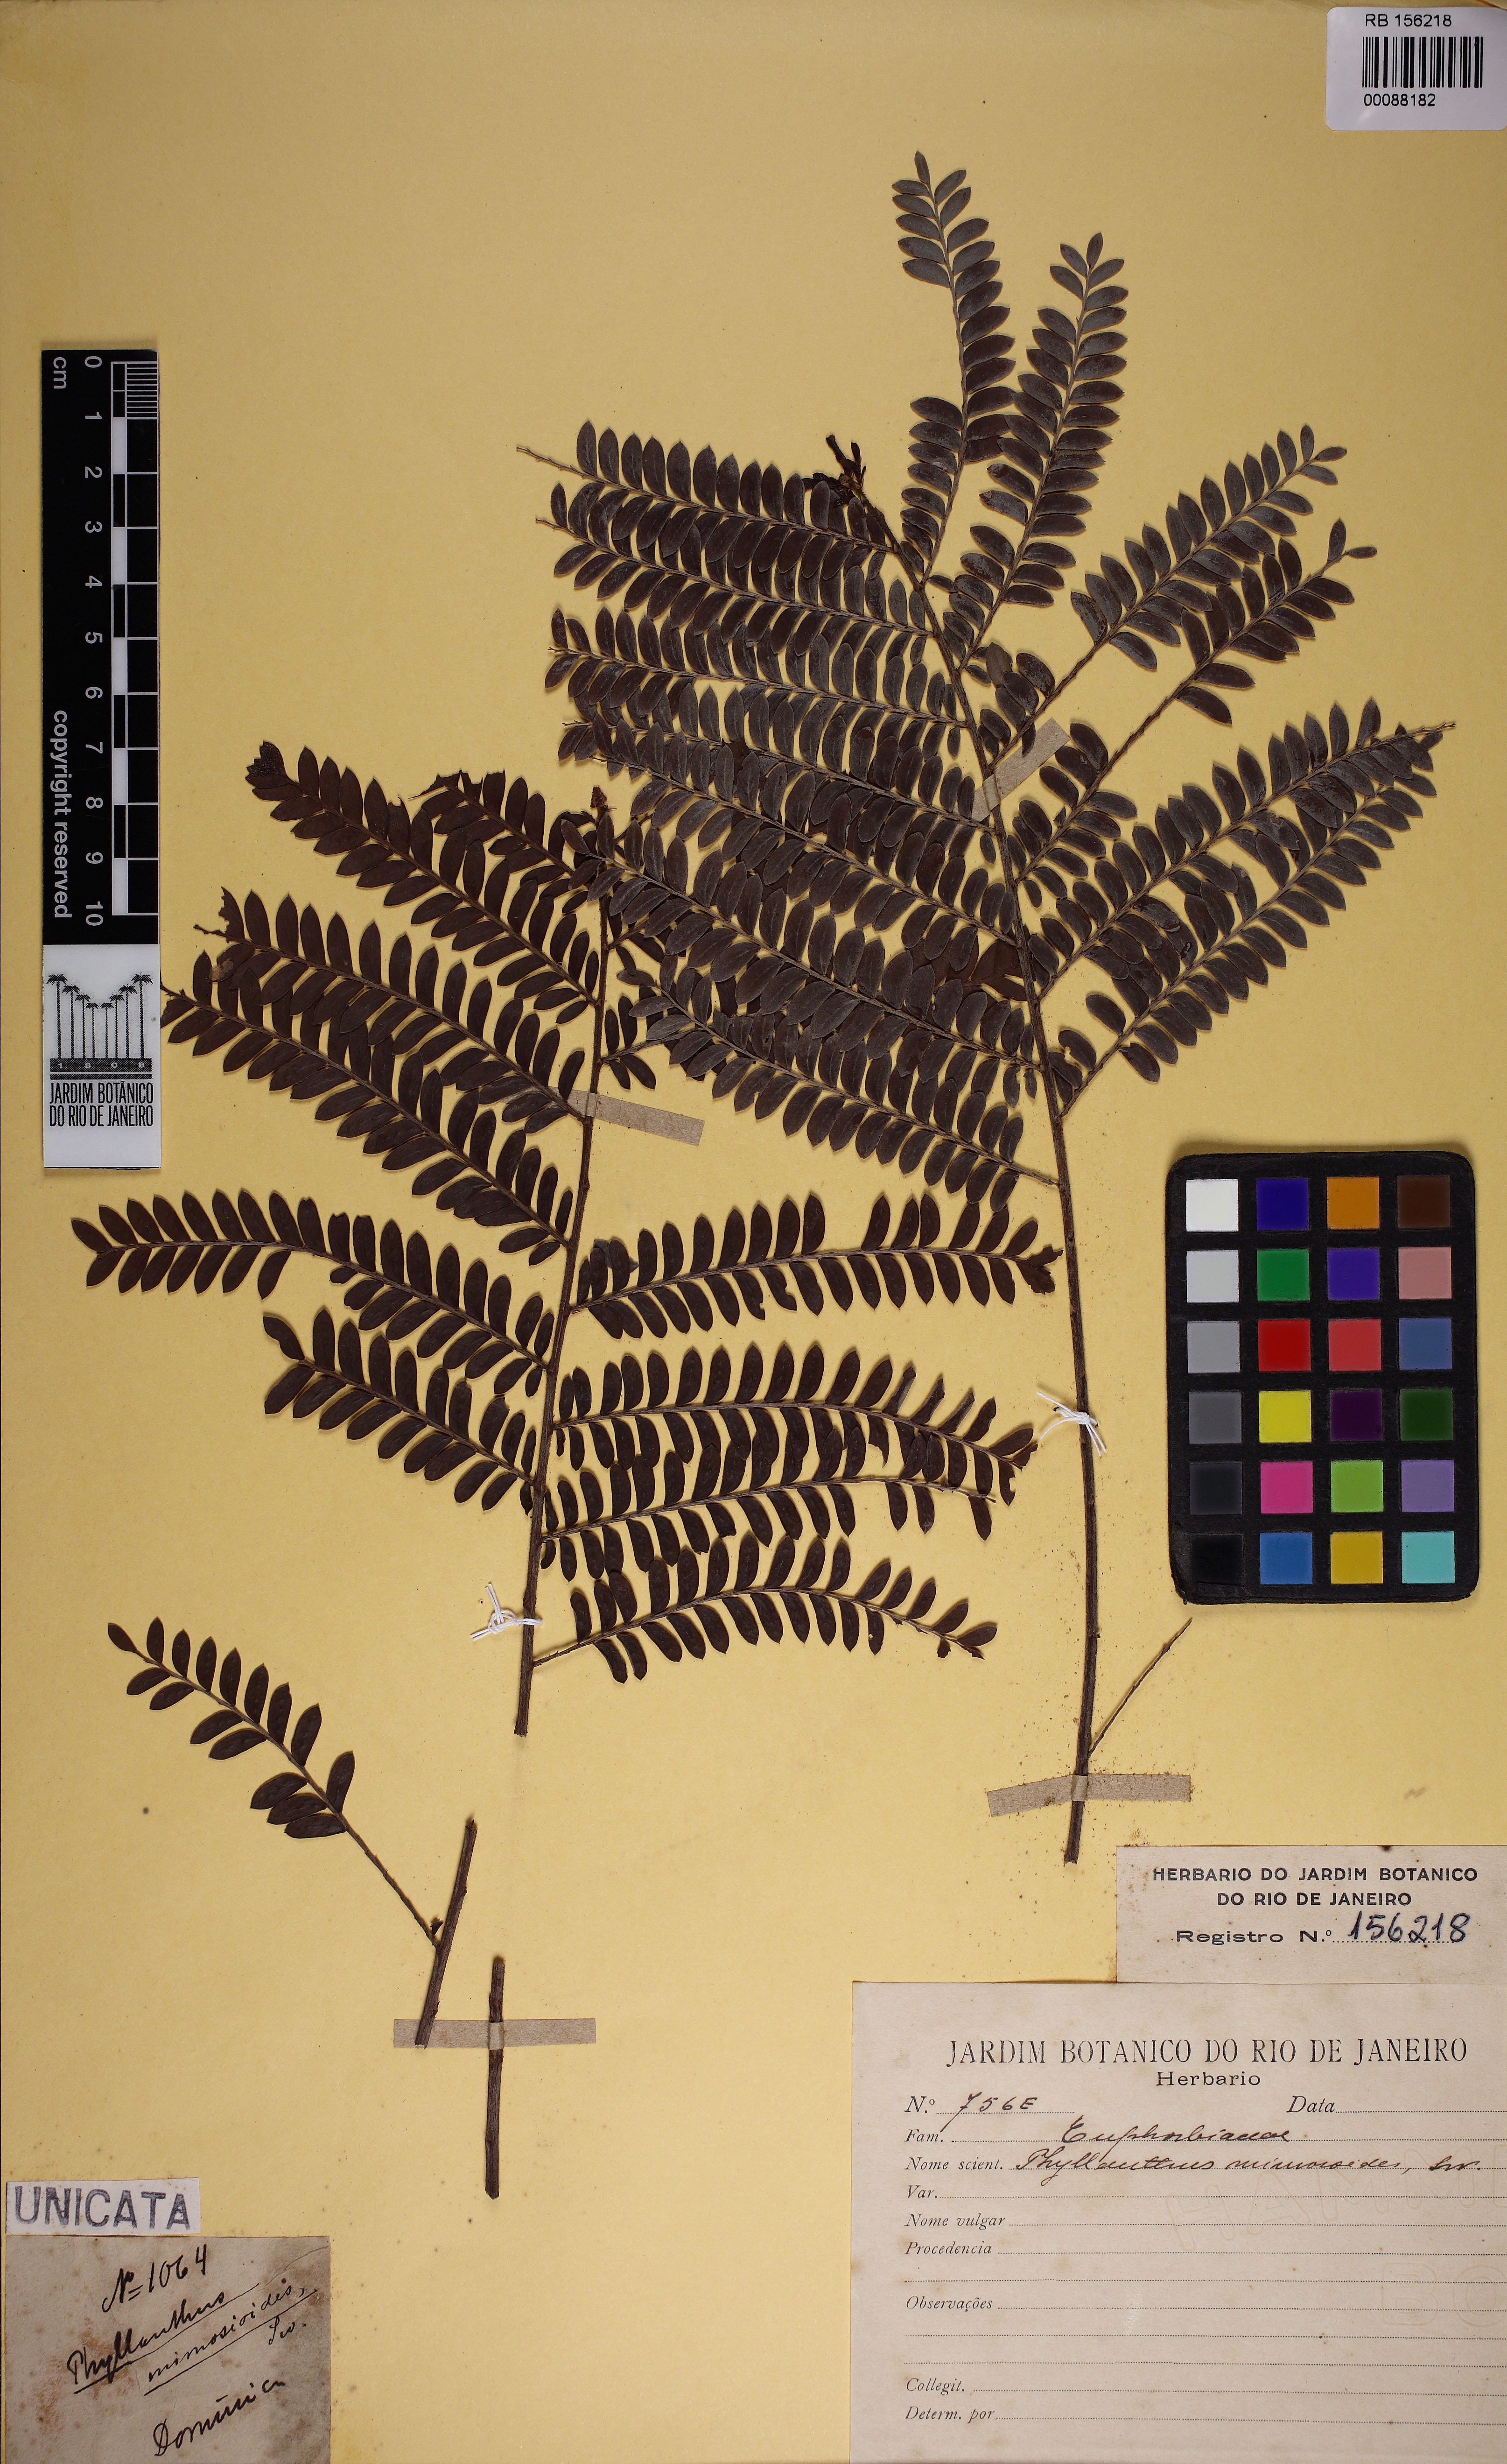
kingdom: Plantae
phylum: Tracheophyta
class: Magnoliopsida
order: Malpighiales
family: Phyllanthaceae
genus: Phyllanthus
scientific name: Phyllanthus mimosoides
